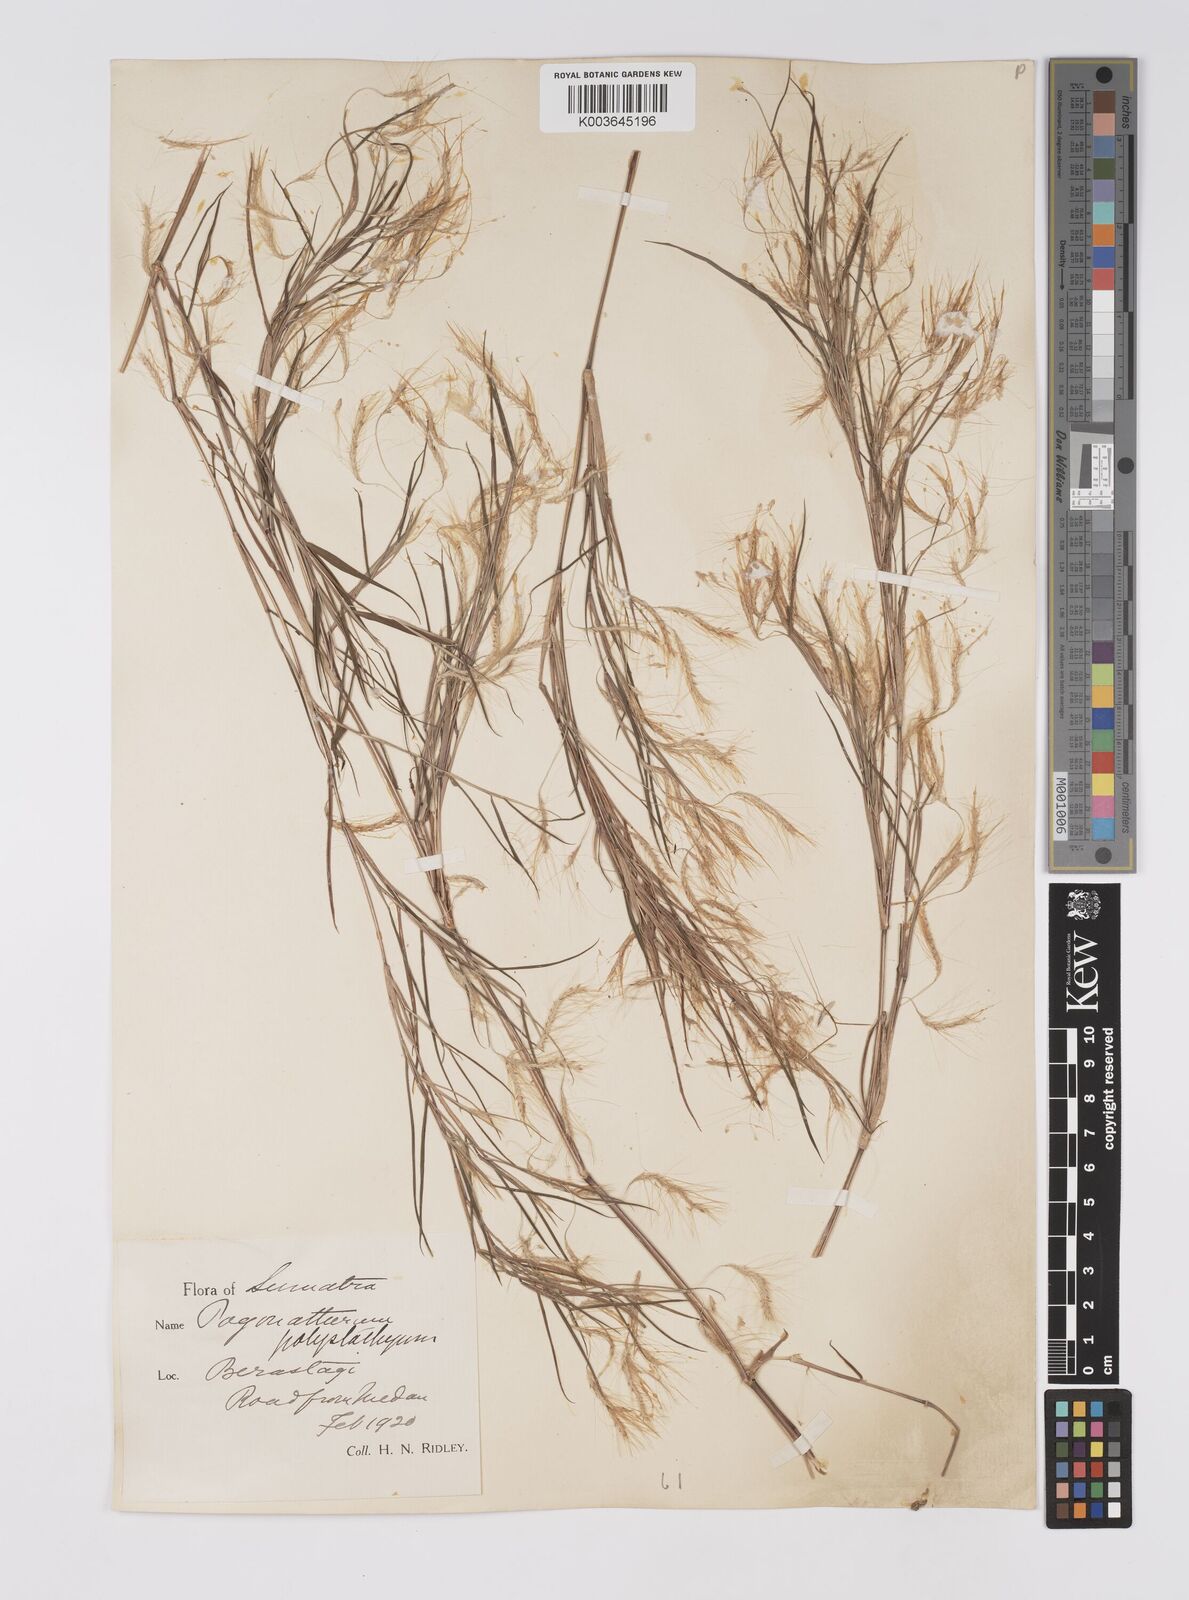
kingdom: Plantae
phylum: Tracheophyta
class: Liliopsida
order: Poales
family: Poaceae
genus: Pogonatherum
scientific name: Pogonatherum paniceum
